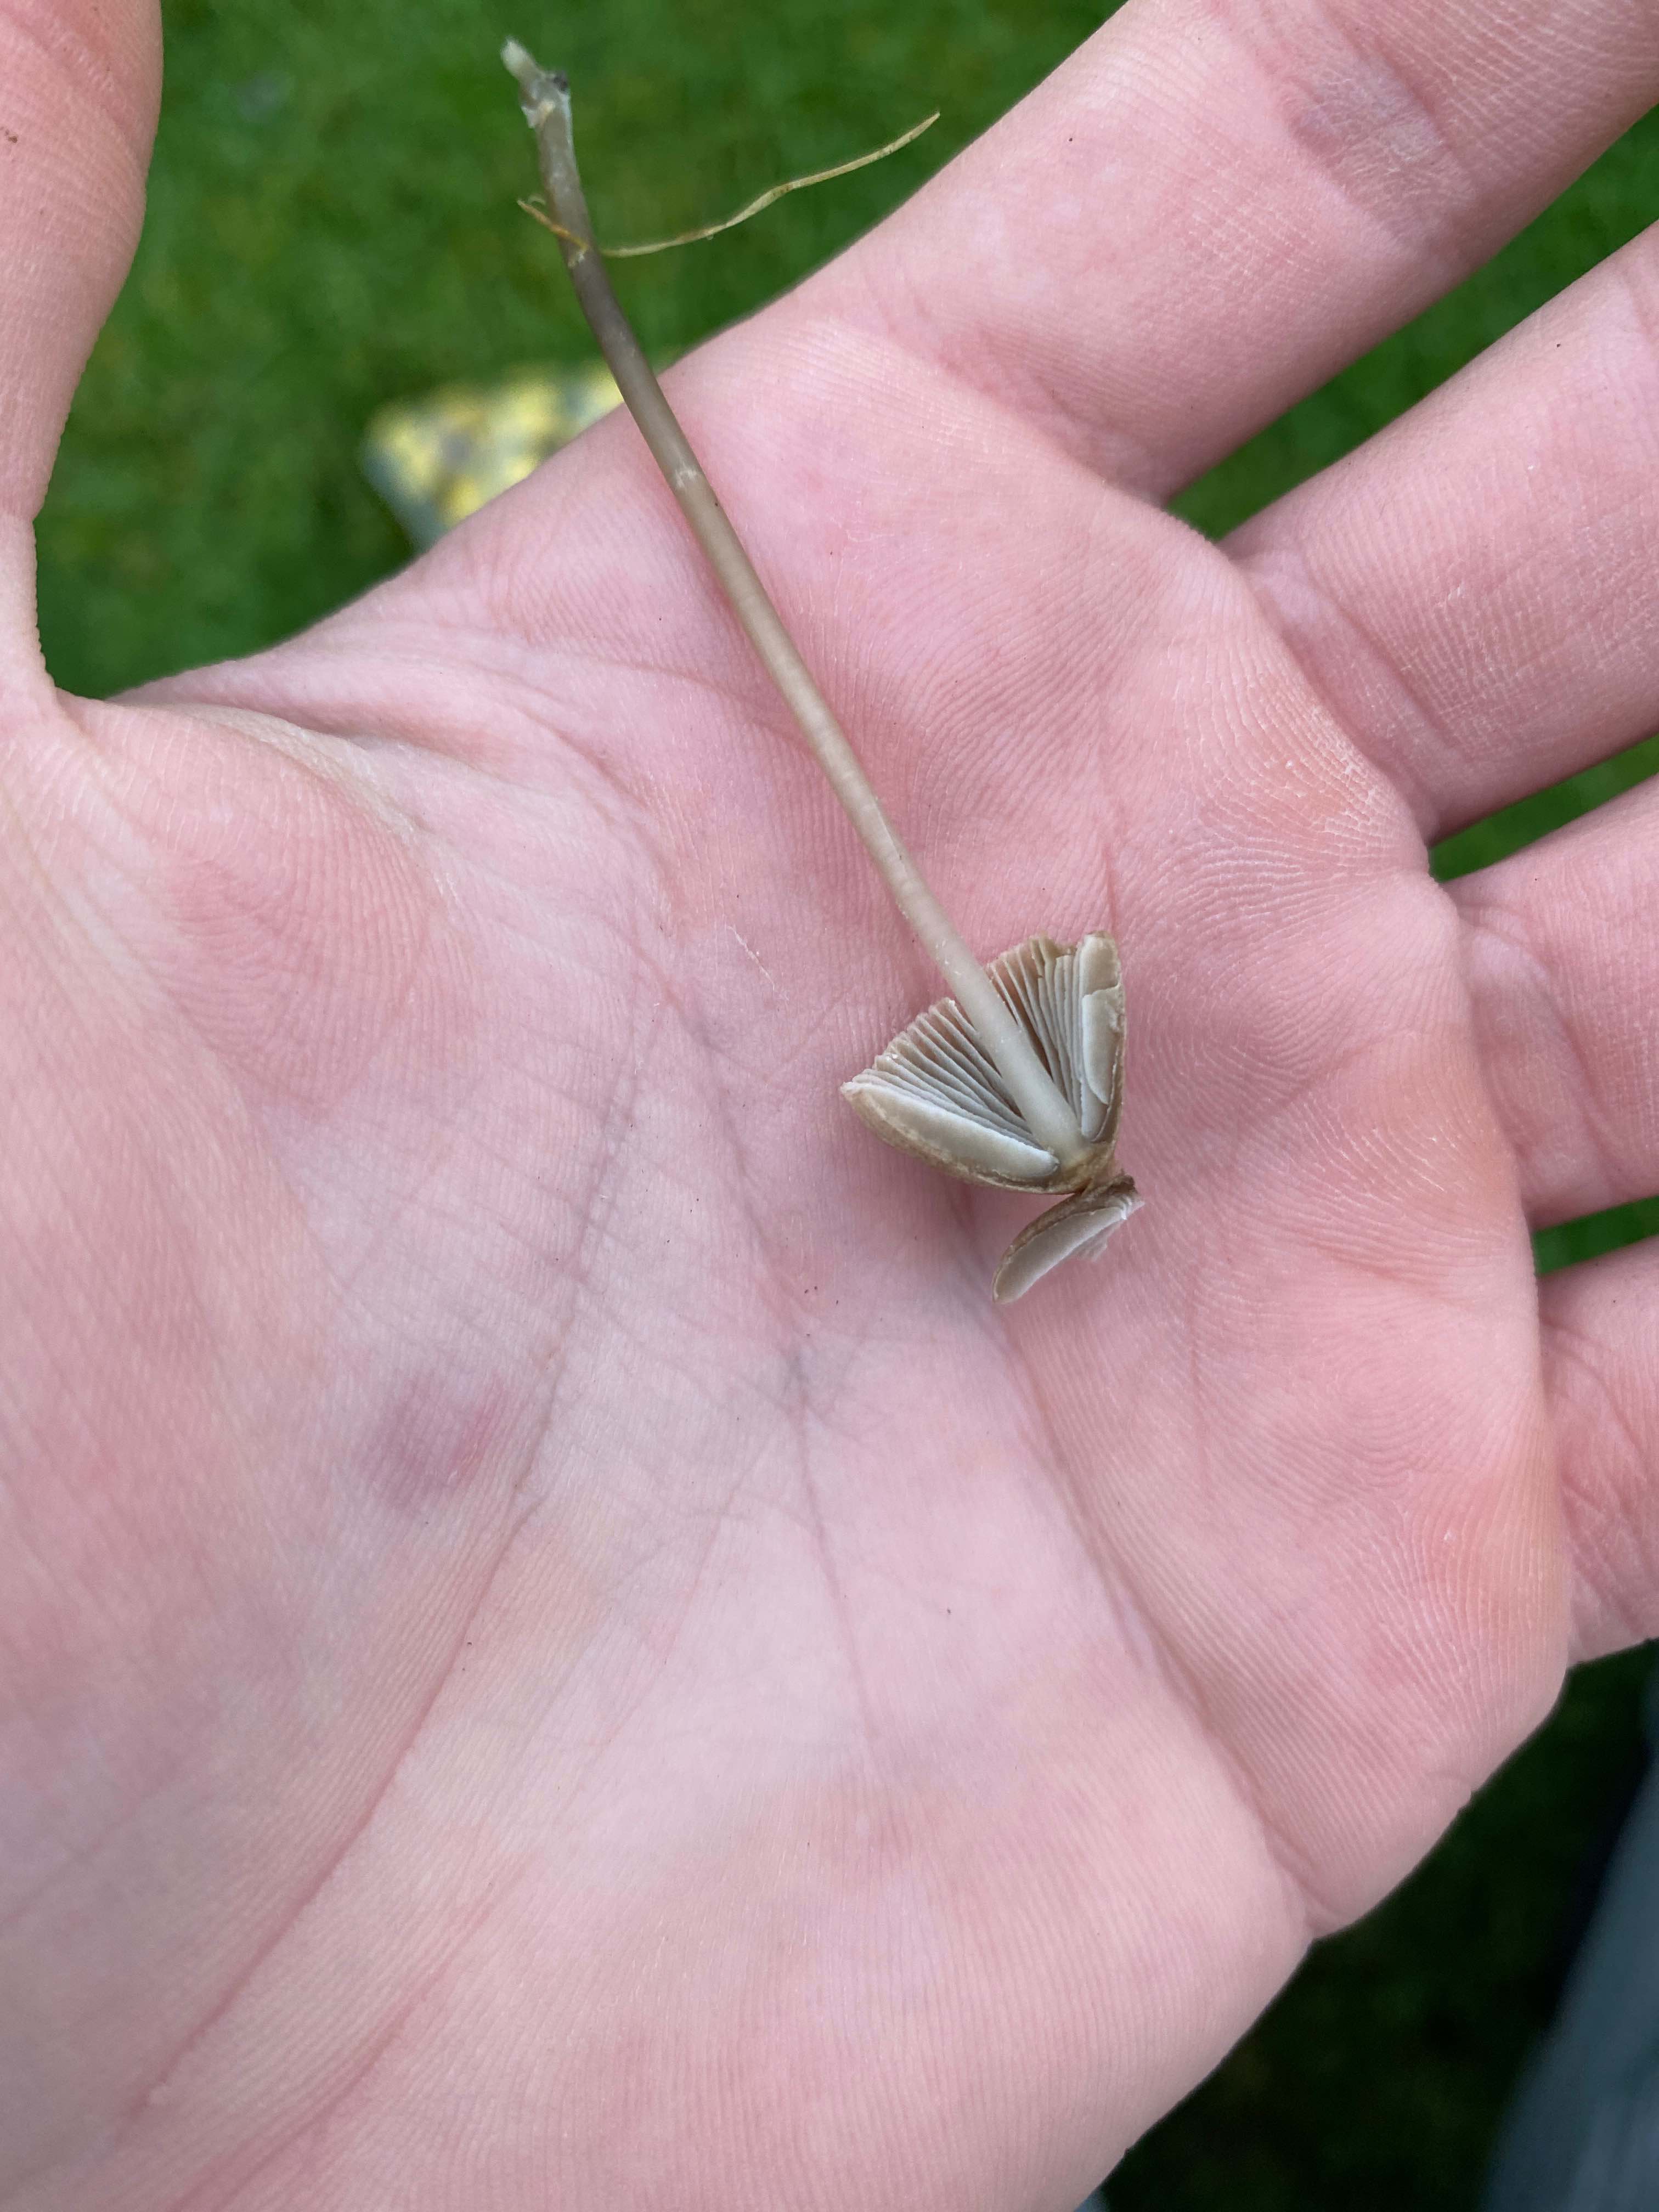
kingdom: Fungi
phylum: Basidiomycota
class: Agaricomycetes
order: Agaricales
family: Mycenaceae
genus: Mycena
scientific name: Mycena
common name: huesvamp
